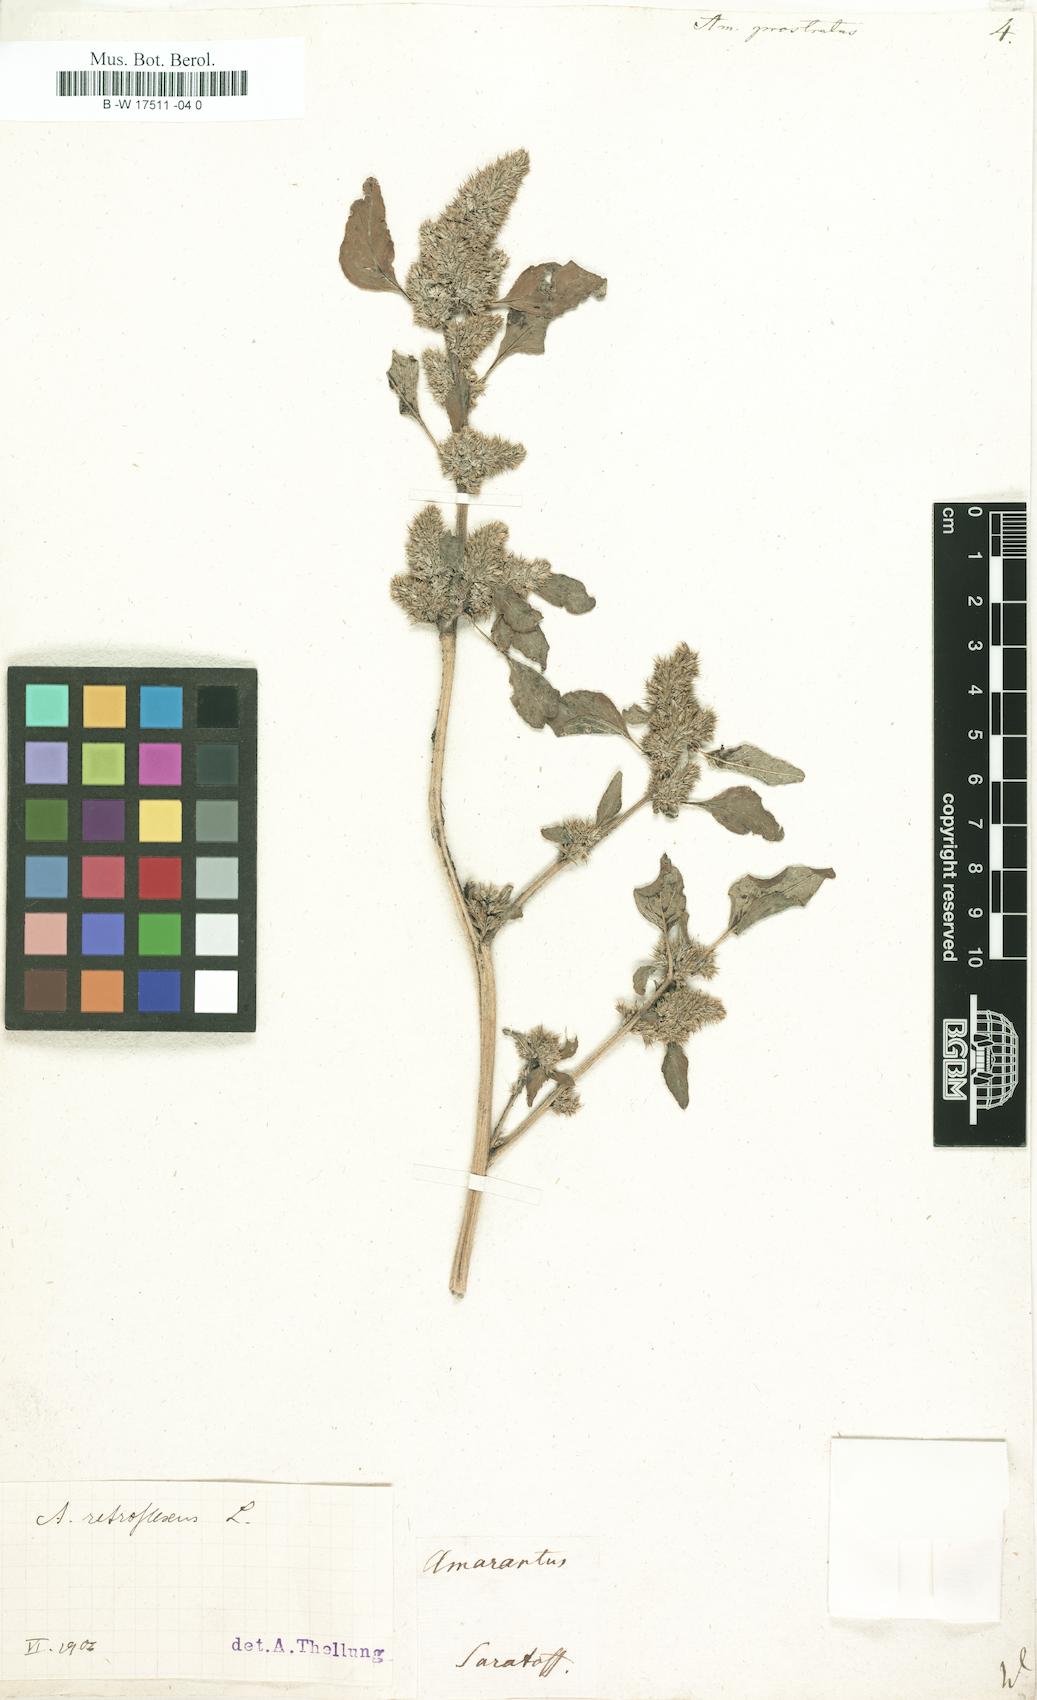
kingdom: Plantae
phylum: Tracheophyta
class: Magnoliopsida
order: Caryophyllales
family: Amaranthaceae
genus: Amaranthus
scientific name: Amaranthus deflexus
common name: Perennial pigweed
